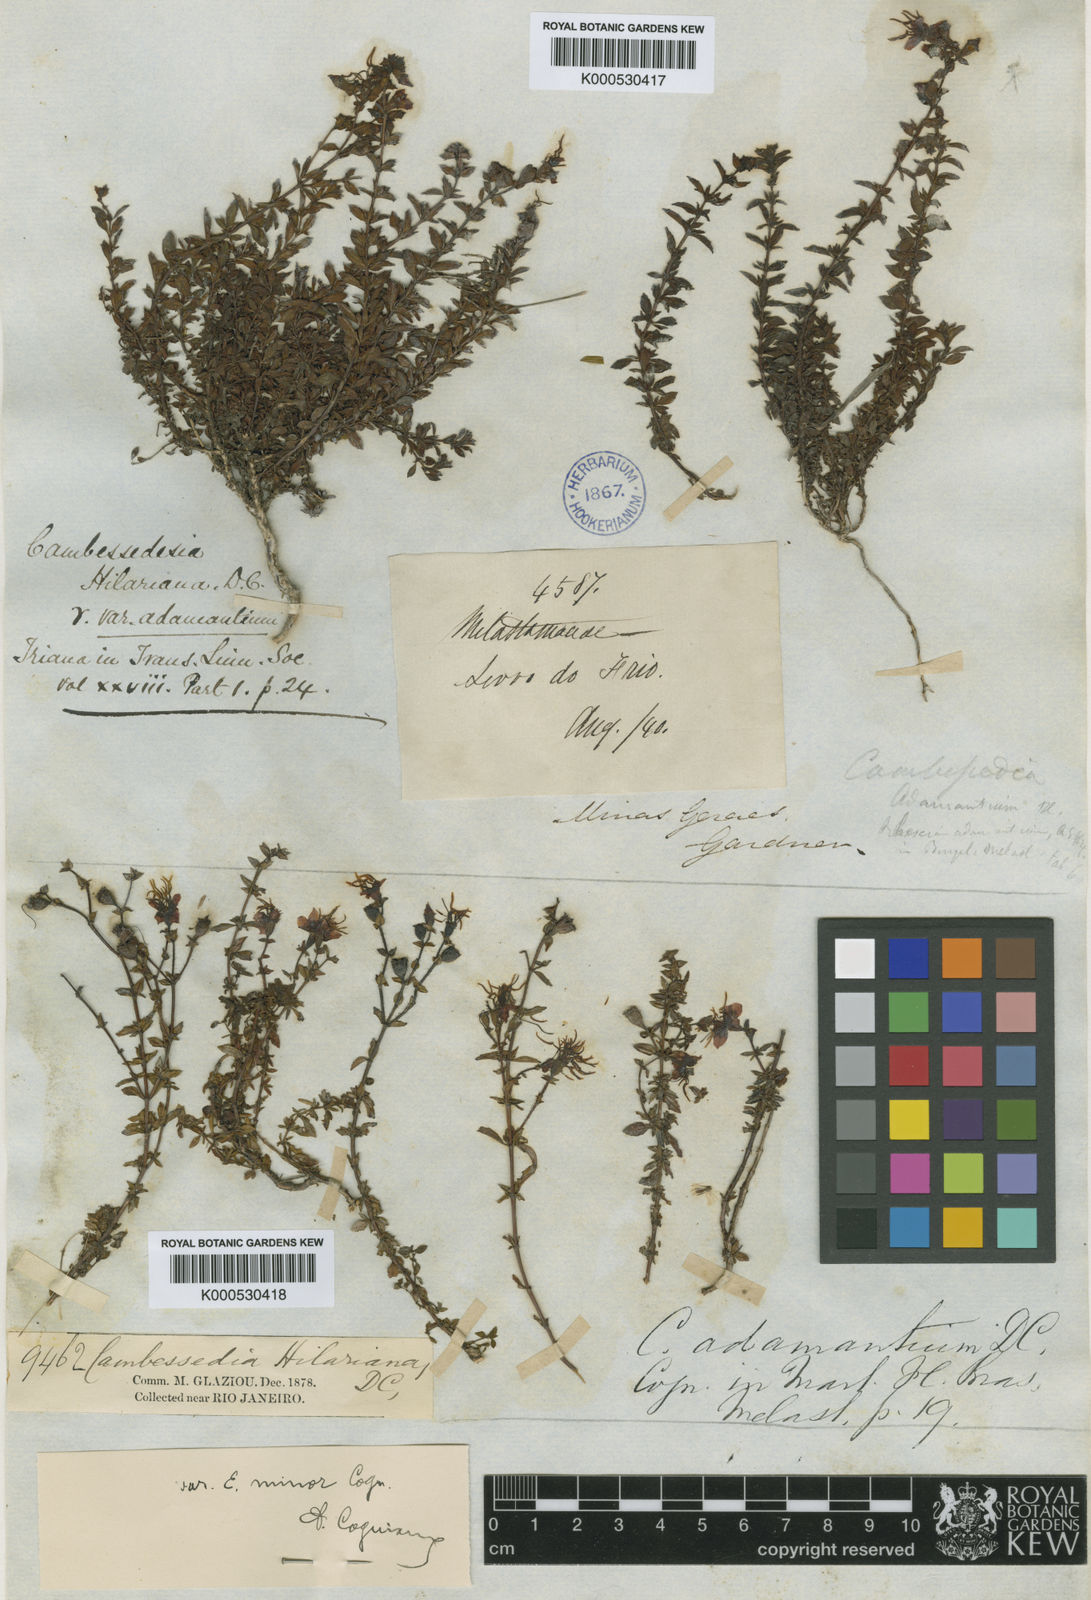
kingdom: Plantae
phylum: Tracheophyta
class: Magnoliopsida
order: Myrtales
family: Melastomataceae
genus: Cambessedesia
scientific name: Cambessedesia hilariana
